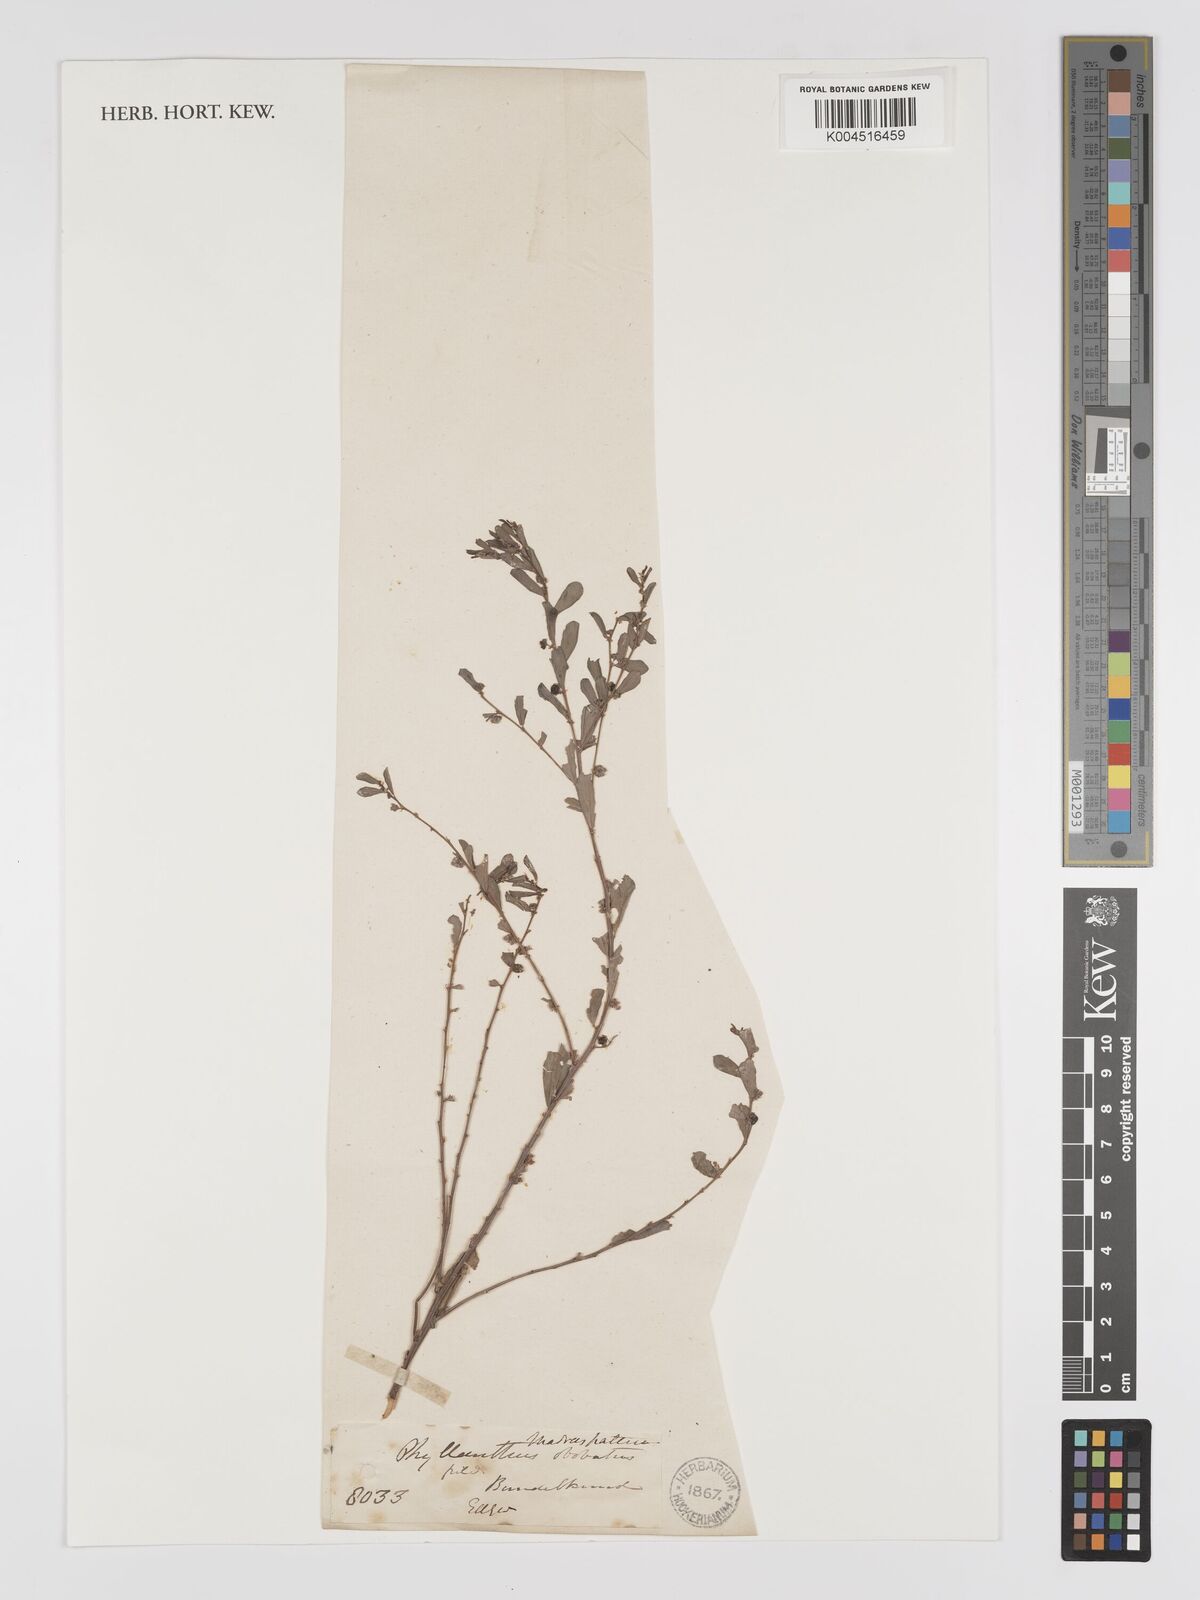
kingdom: Plantae
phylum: Tracheophyta
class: Magnoliopsida
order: Malpighiales
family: Phyllanthaceae
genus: Phyllanthus
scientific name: Phyllanthus maderaspatensis
